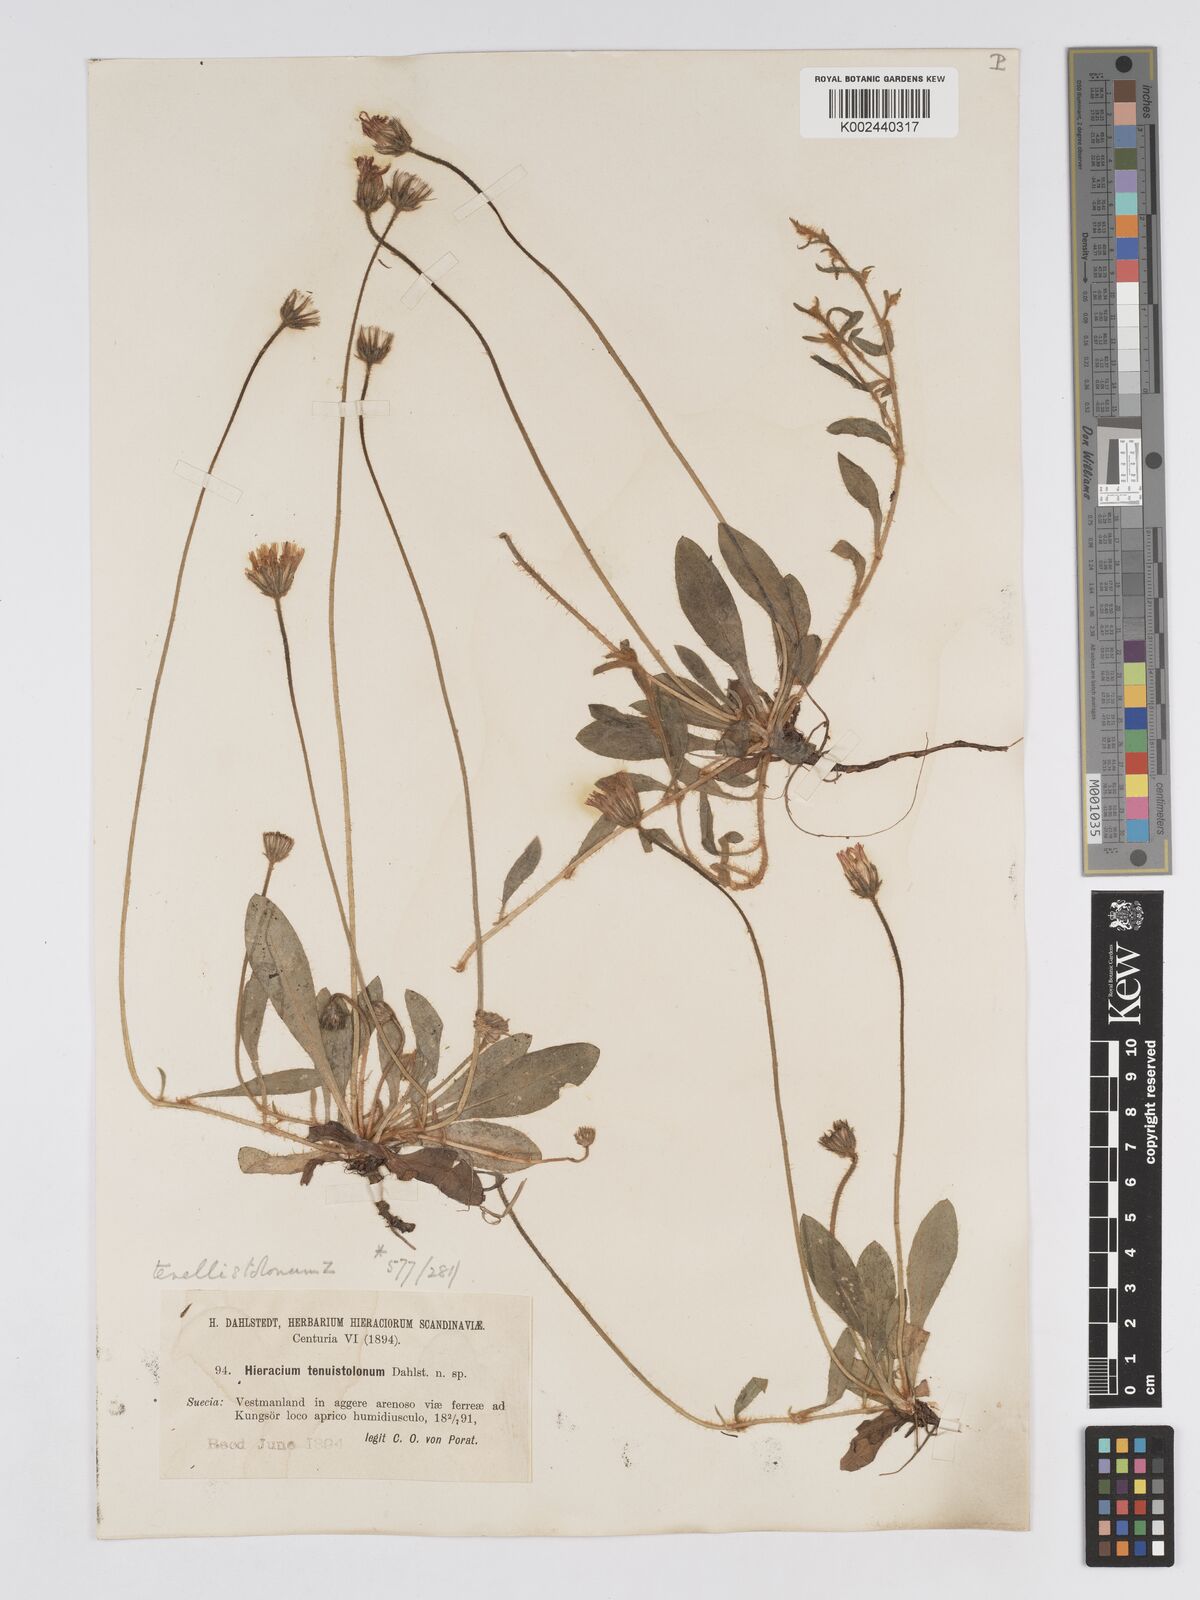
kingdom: Plantae
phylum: Tracheophyta
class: Magnoliopsida
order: Asterales
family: Asteraceae
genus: Pilosella
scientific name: Pilosella officinarum
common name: Mouse-ear hawkweed
